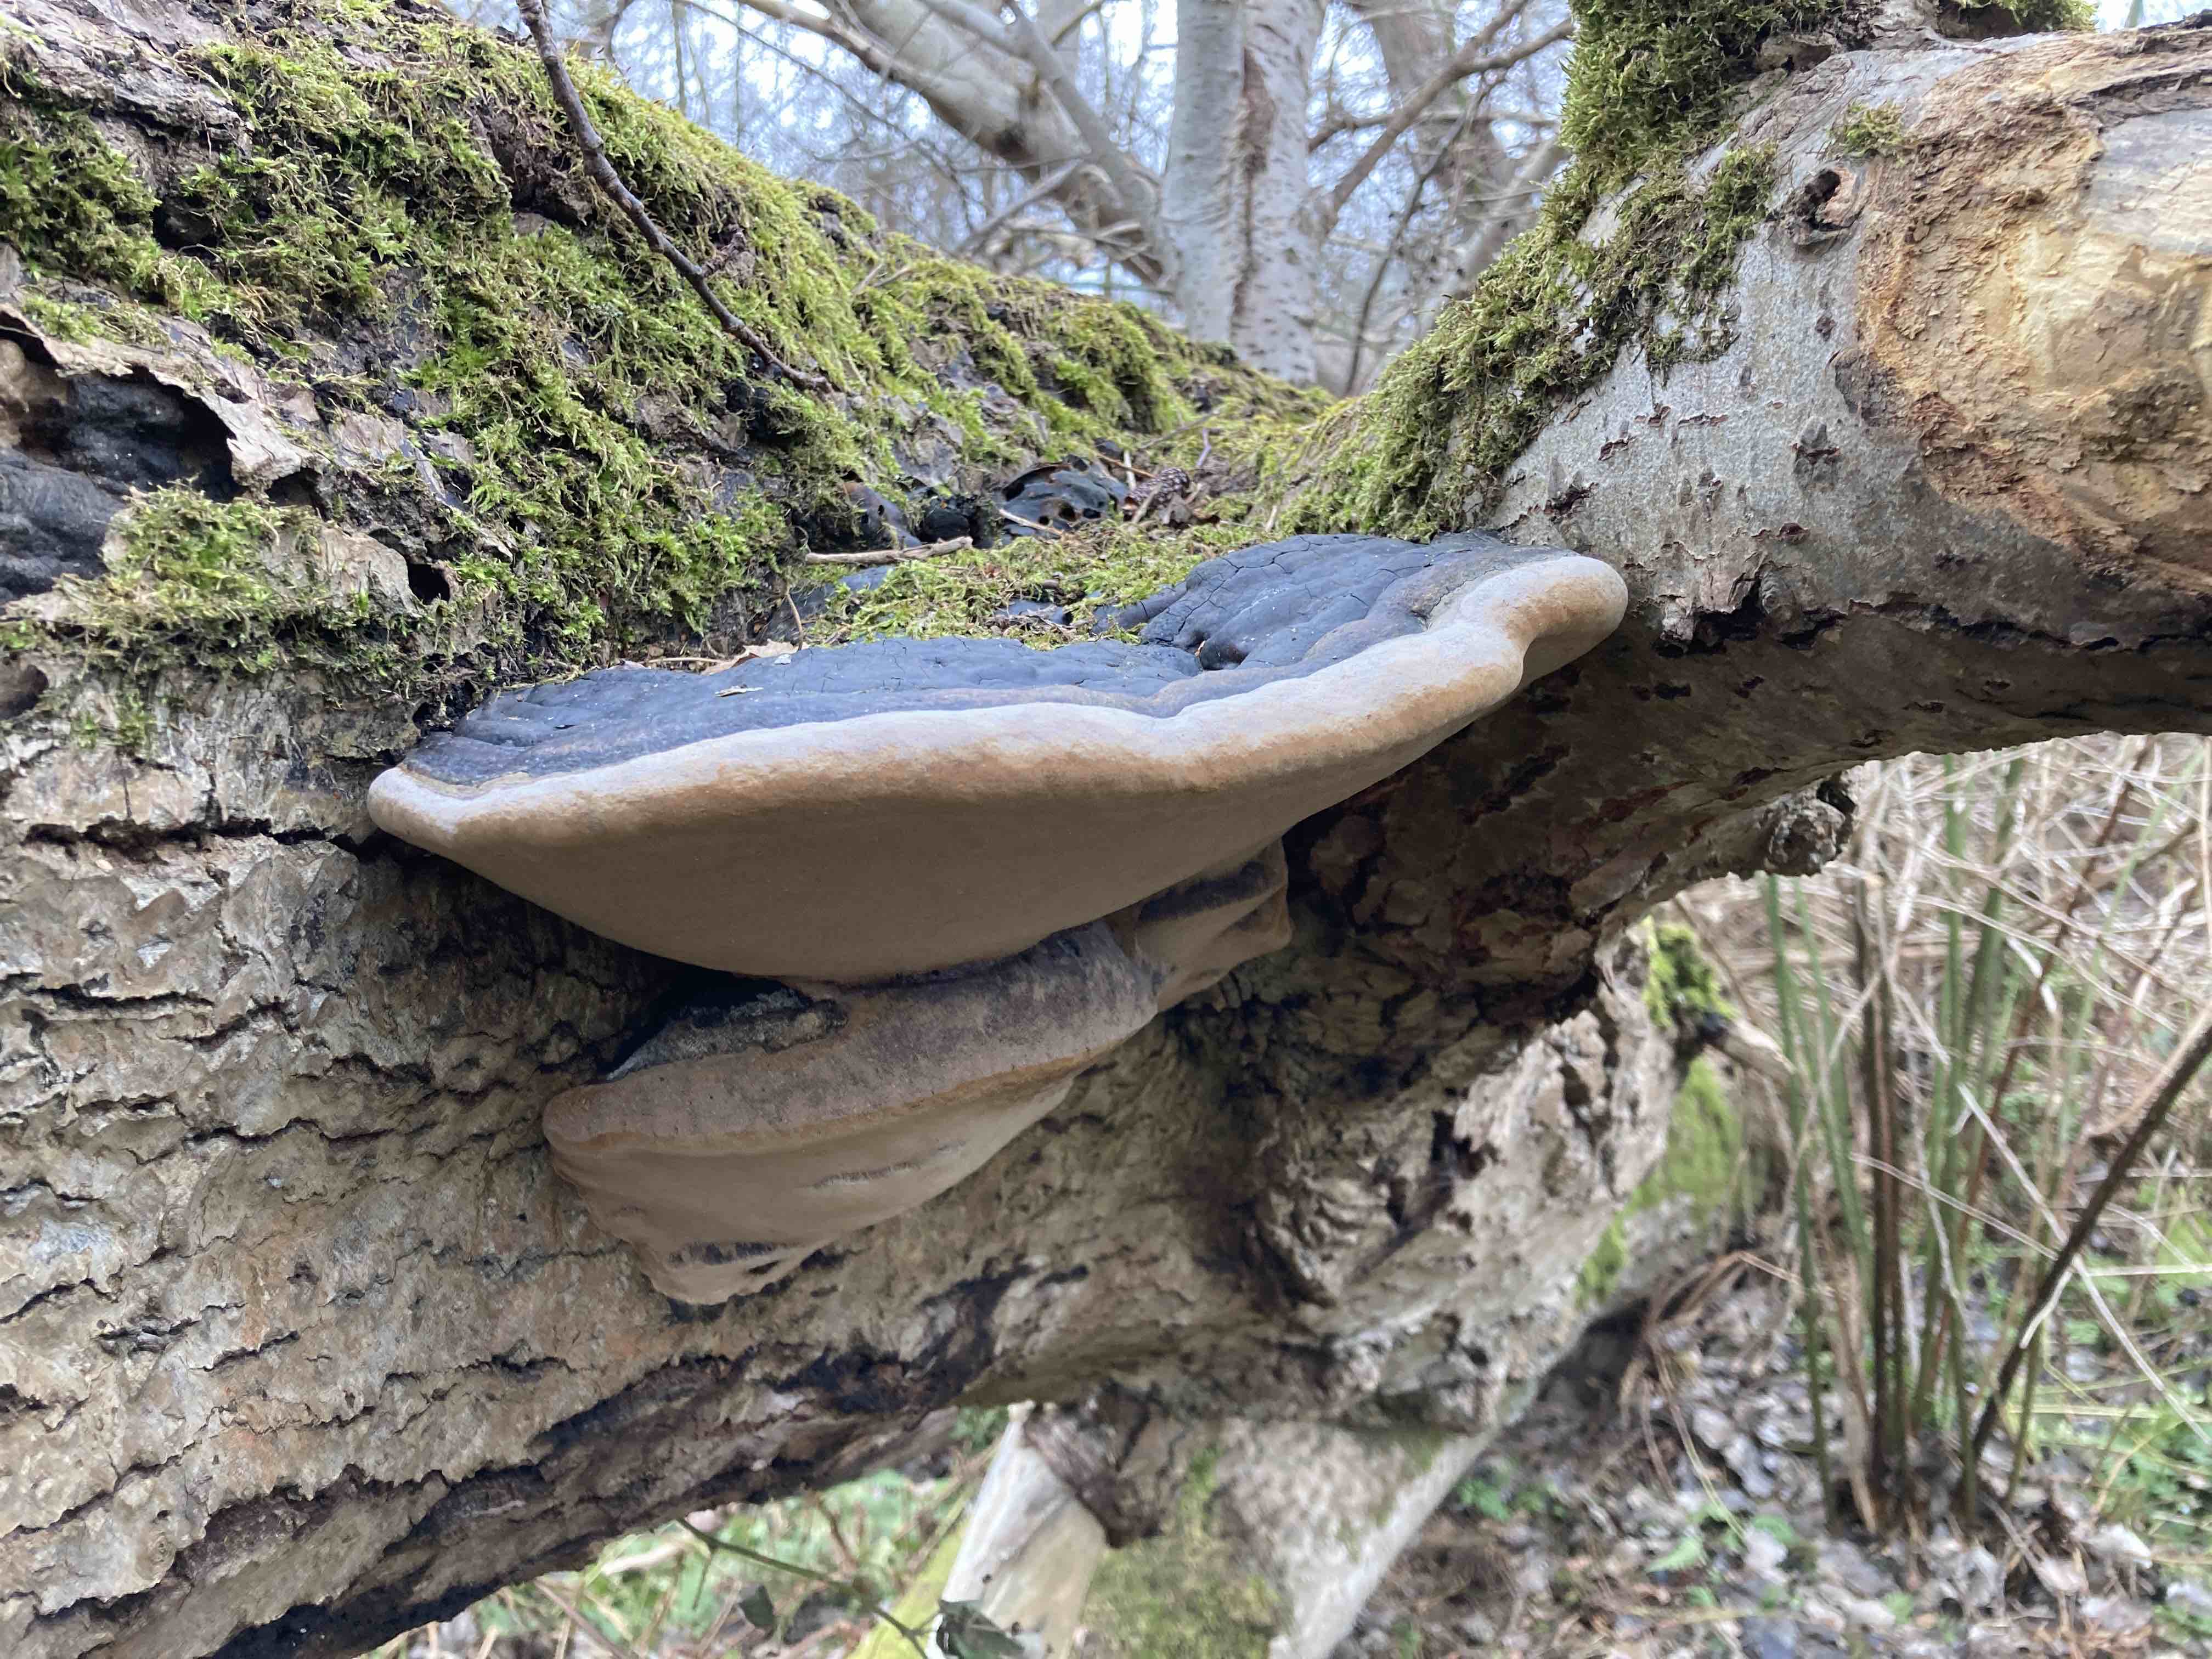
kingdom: Fungi
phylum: Basidiomycota
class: Agaricomycetes
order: Hymenochaetales
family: Hymenochaetaceae
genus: Phellinus
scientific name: Phellinus populicola
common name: poppel-ildporesvamp
